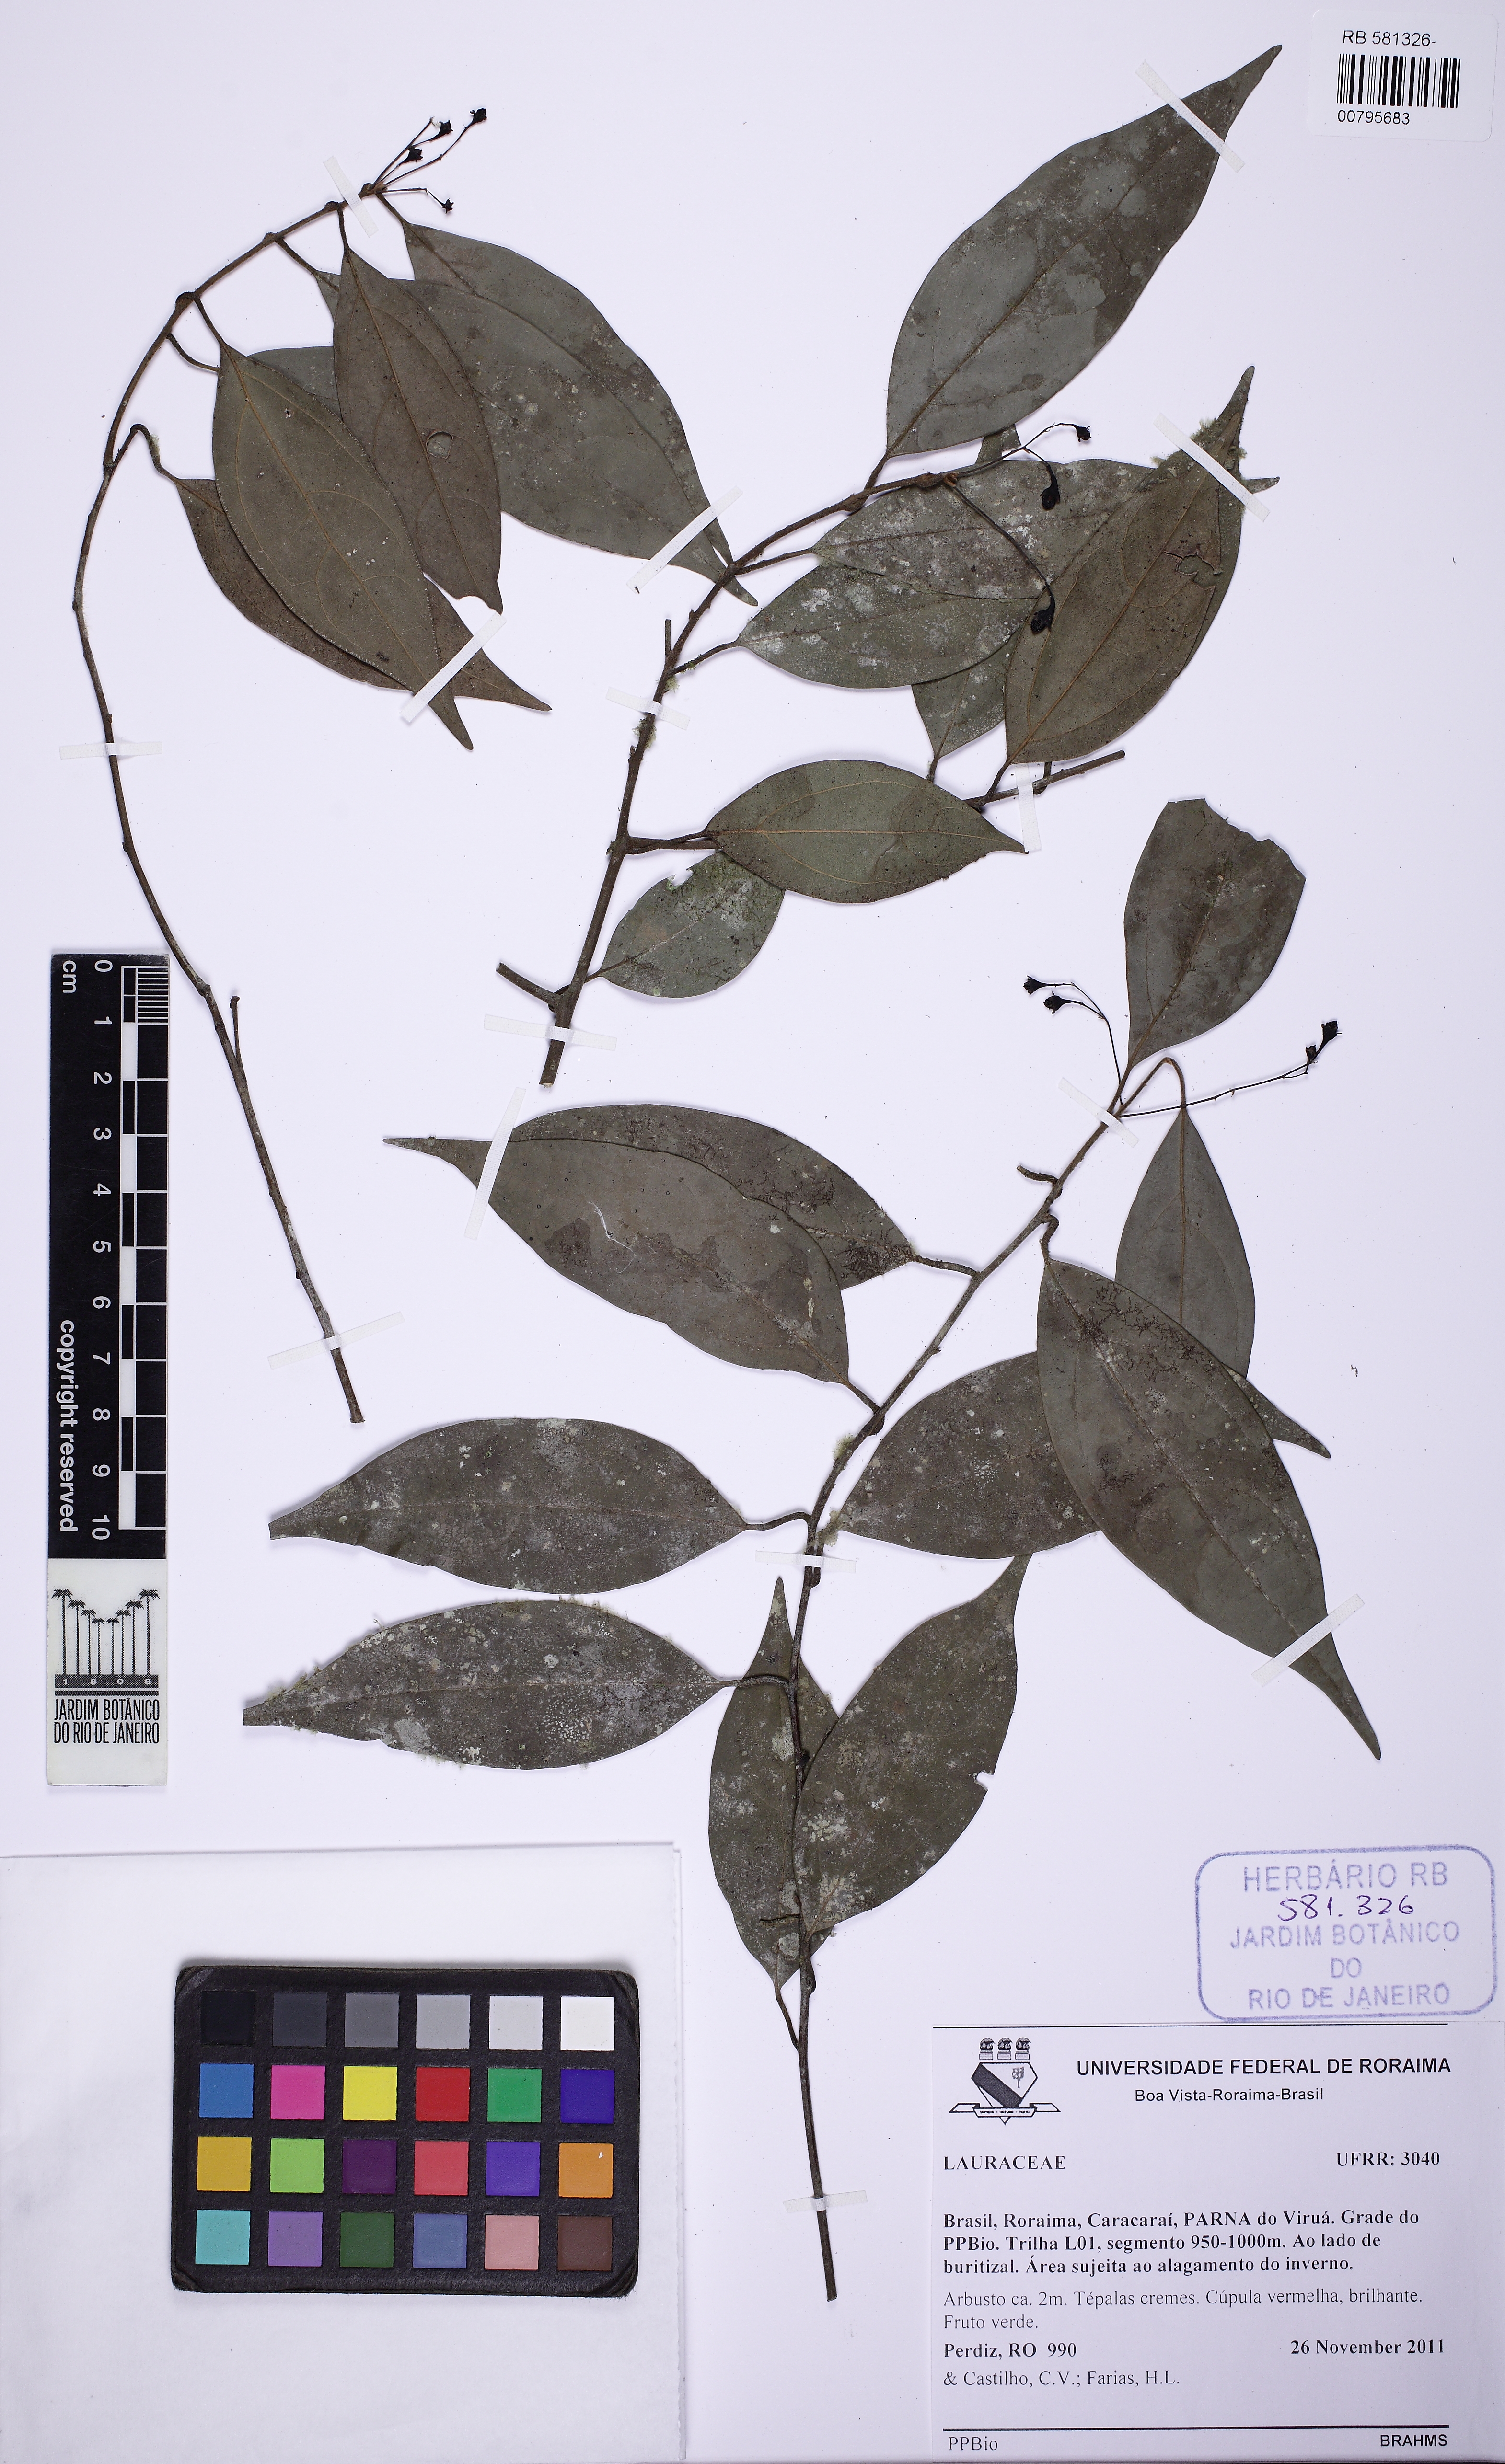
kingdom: Plantae
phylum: Tracheophyta
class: Magnoliopsida
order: Laurales
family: Lauraceae
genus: Ocotea
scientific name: Ocotea leptobotra
